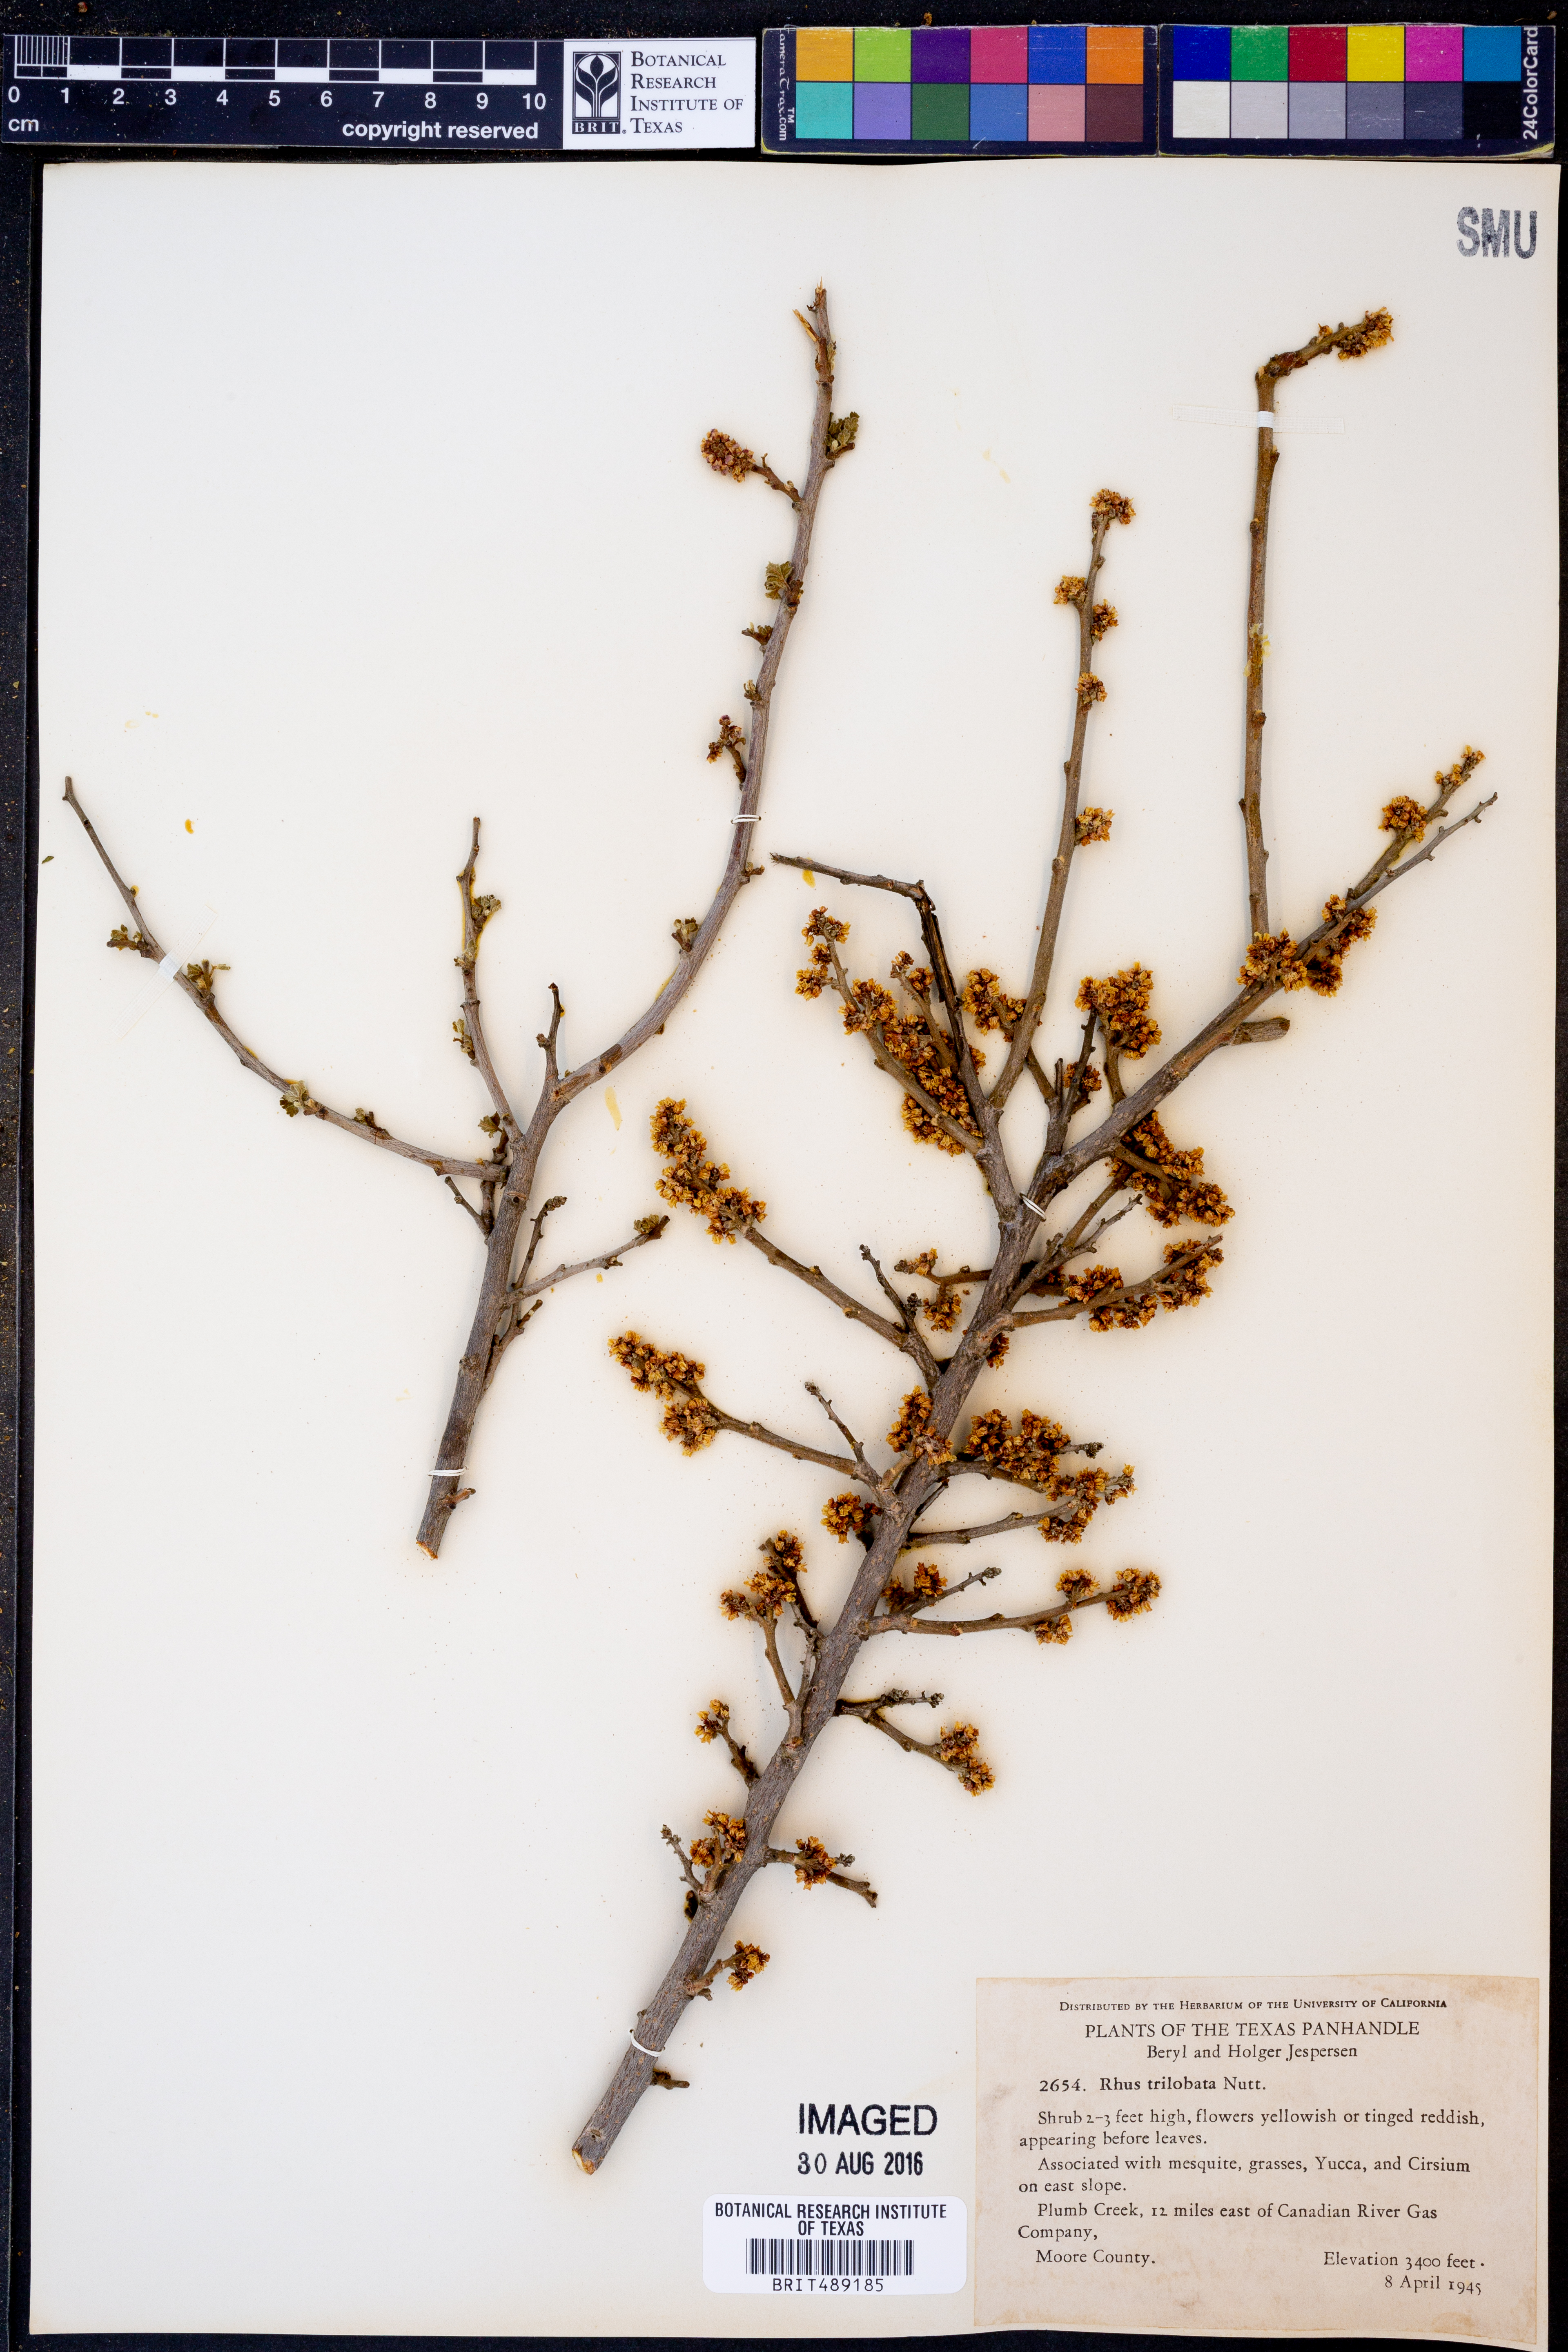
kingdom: Plantae
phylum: Tracheophyta
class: Magnoliopsida
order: Sapindales
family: Anacardiaceae
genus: Rhus
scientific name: Rhus trilobata
